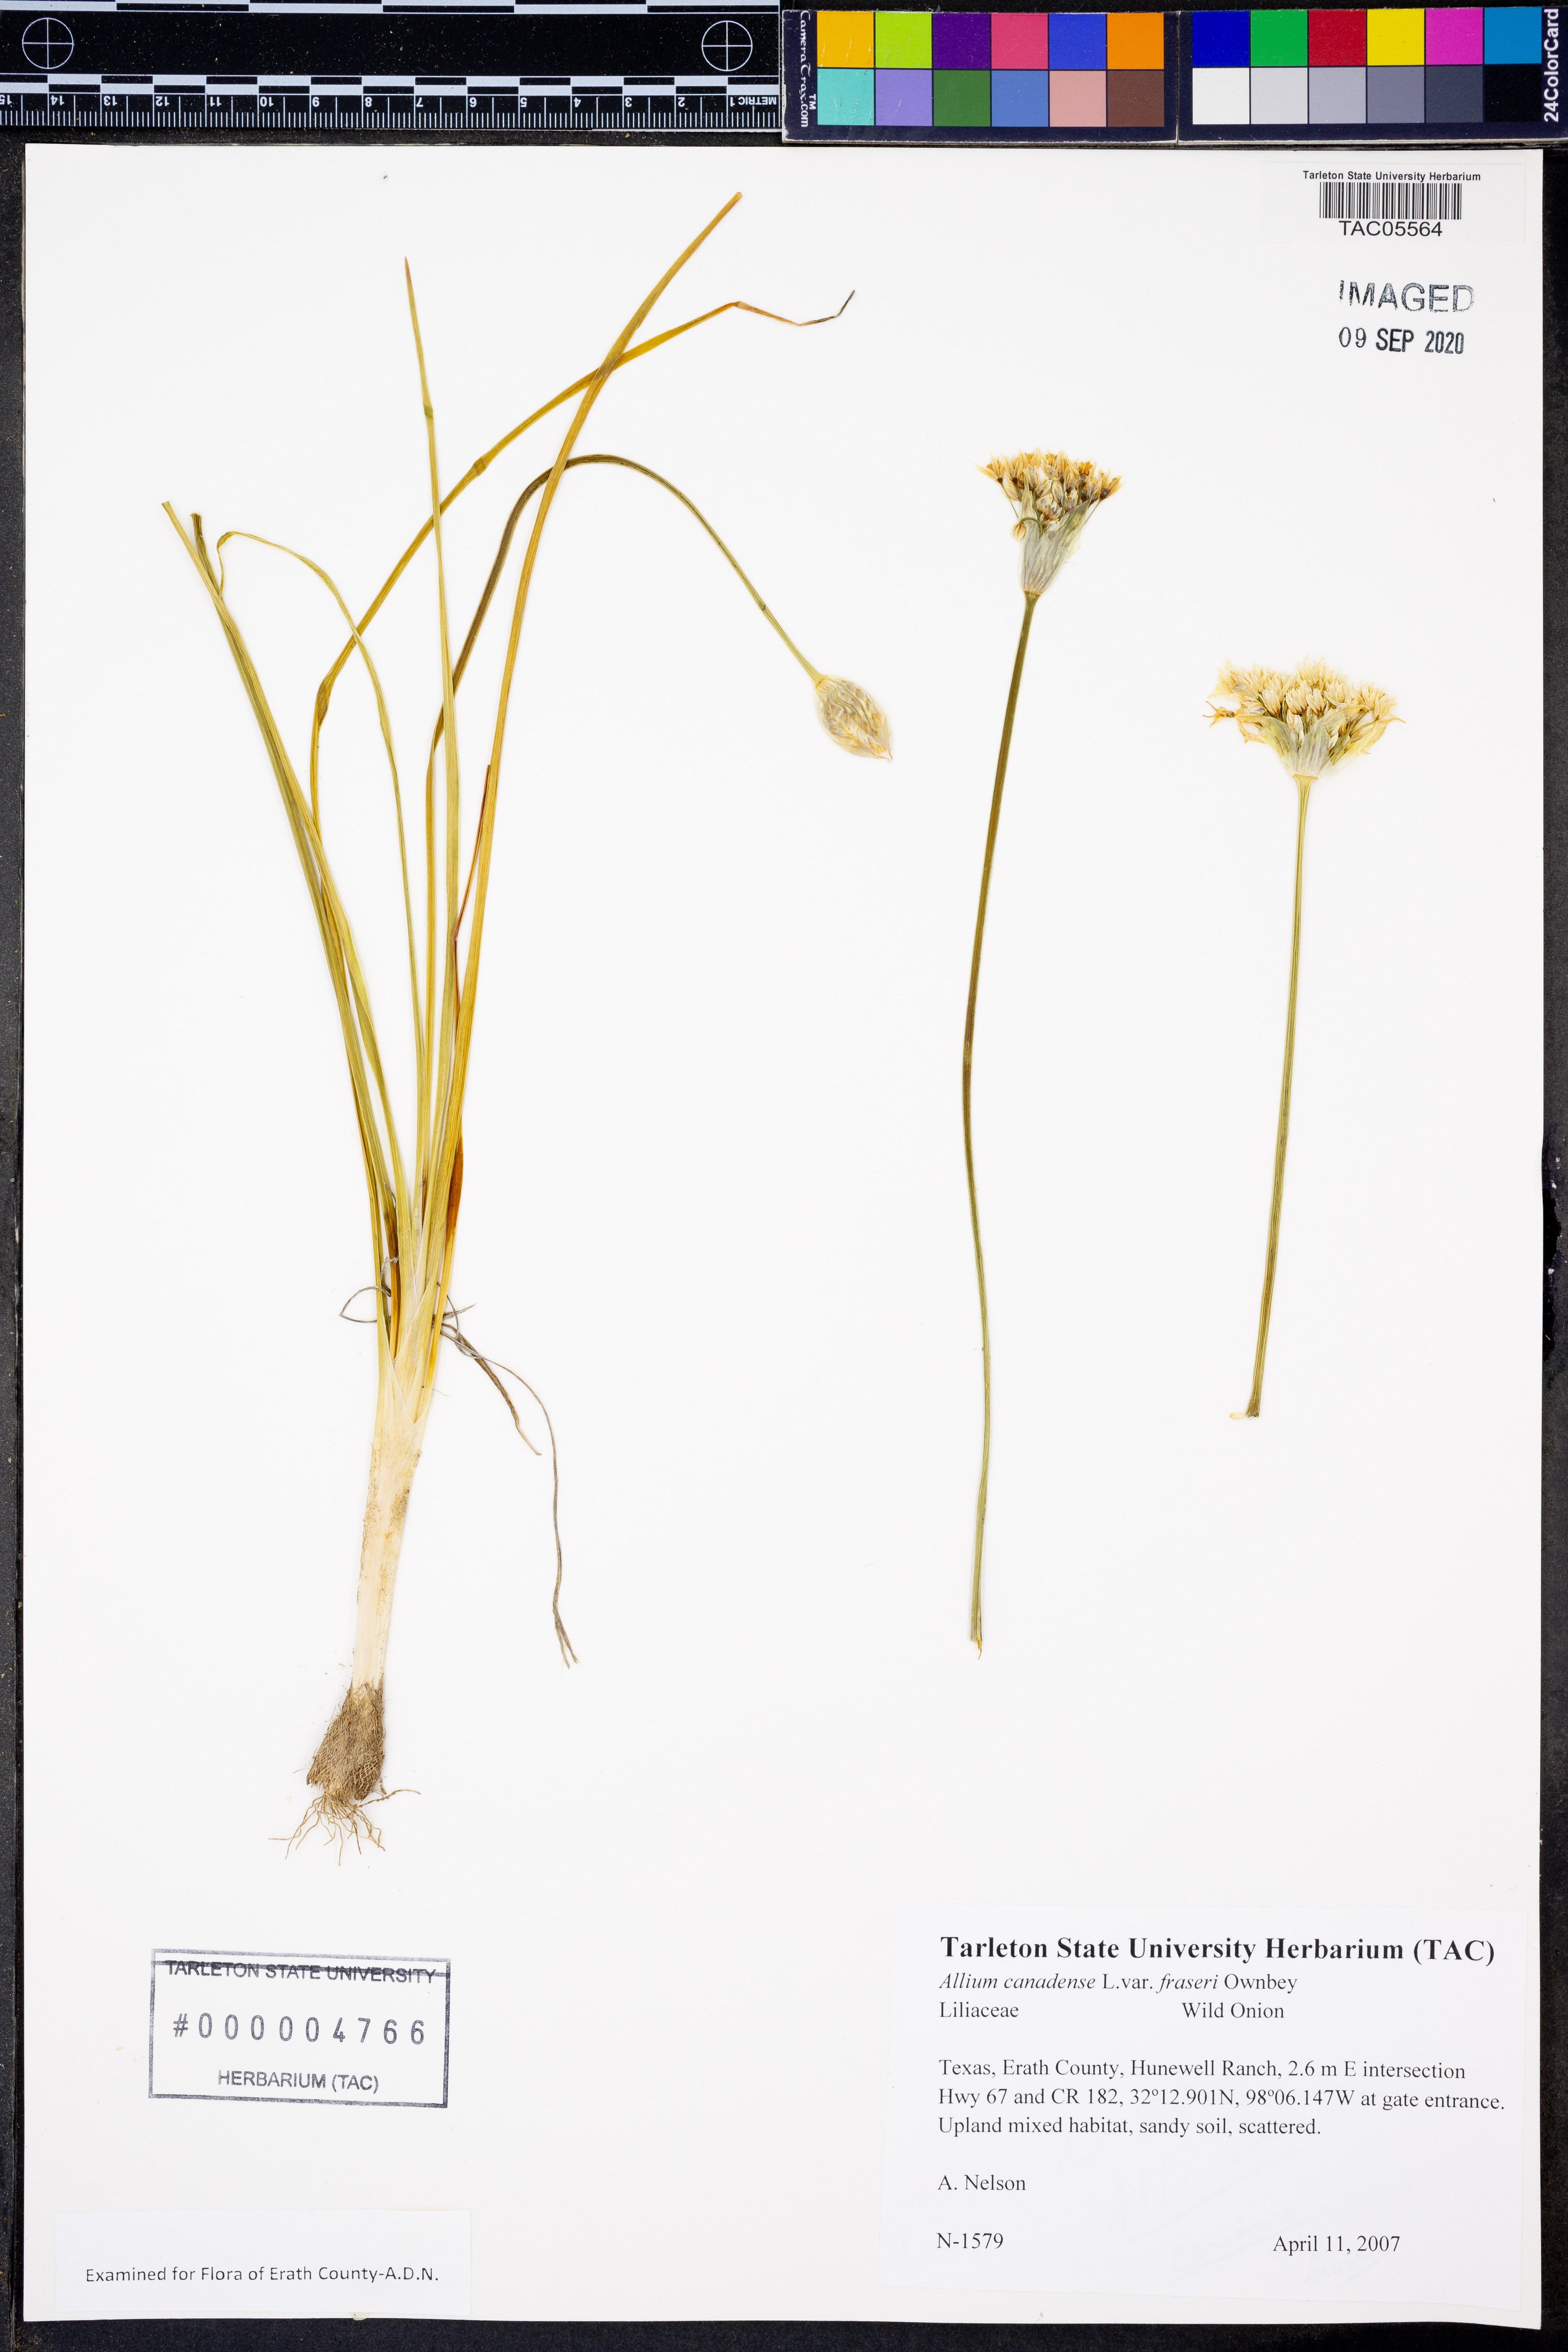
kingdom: Plantae
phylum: Tracheophyta
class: Liliopsida
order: Asparagales
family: Amaryllidaceae
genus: Allium
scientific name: Allium fraseri
